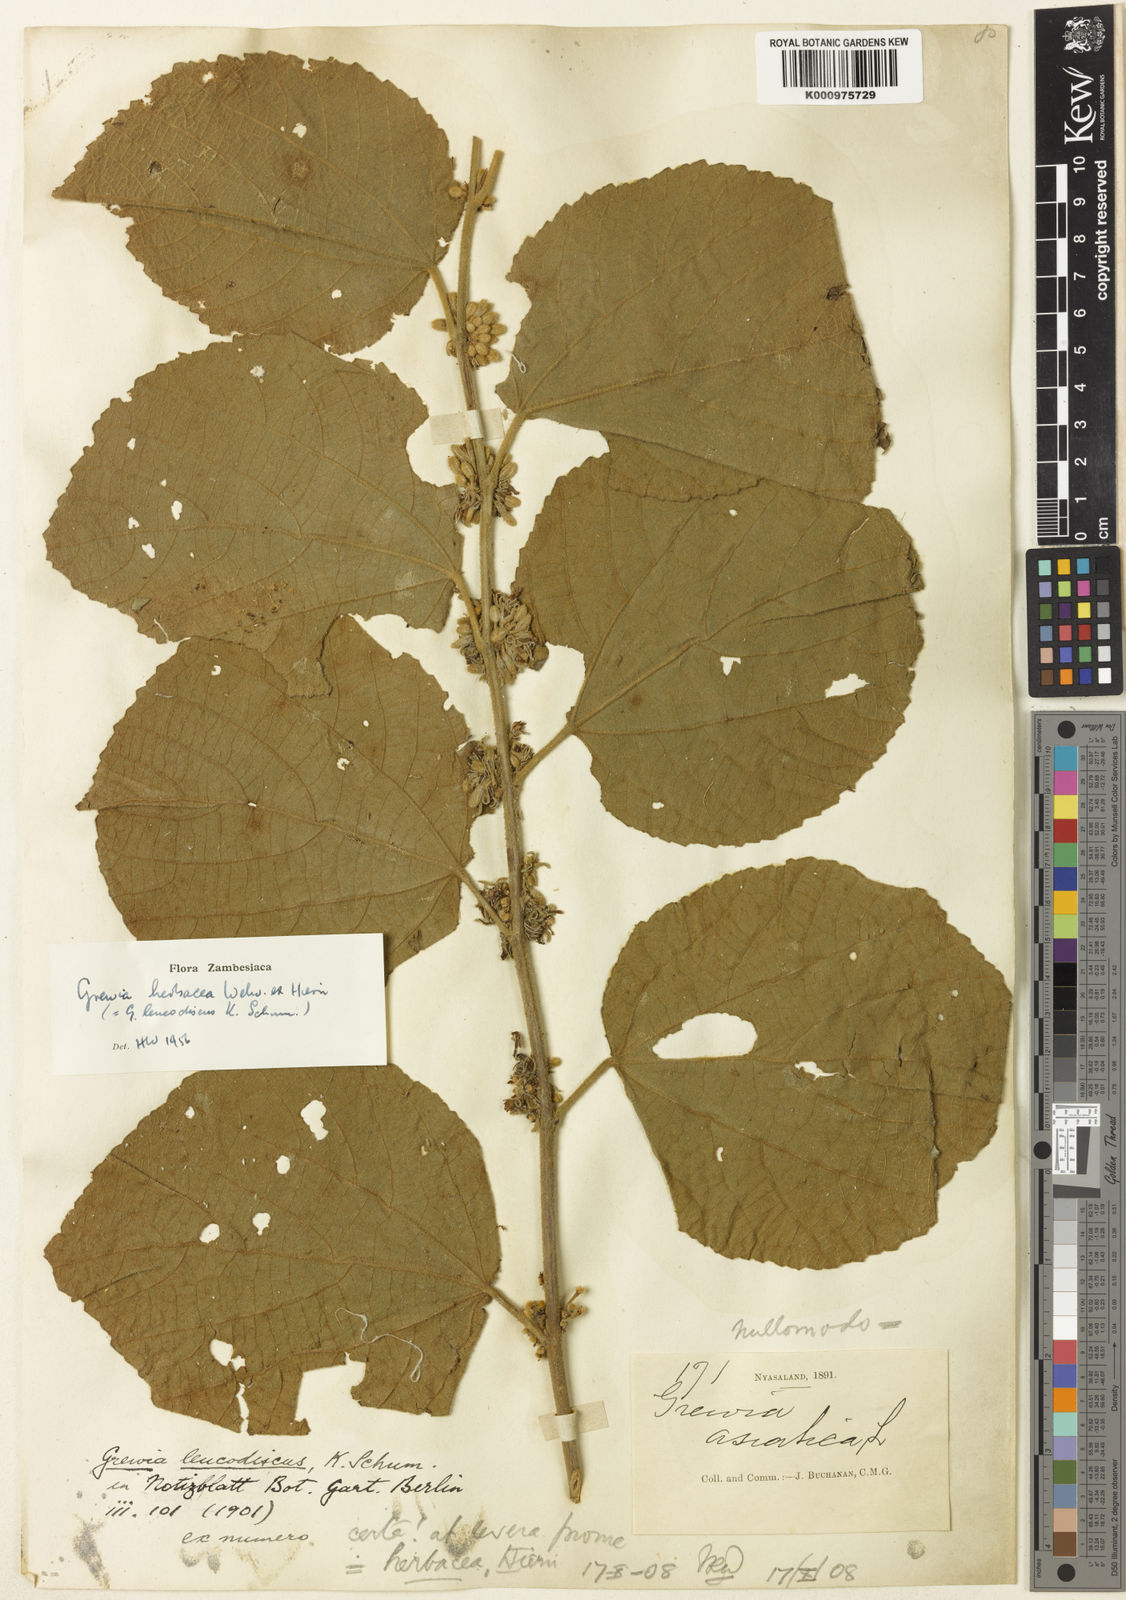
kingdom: Plantae
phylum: Tracheophyta
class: Magnoliopsida
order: Malvales
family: Malvaceae
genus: Grewia
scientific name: Grewia herbacea
